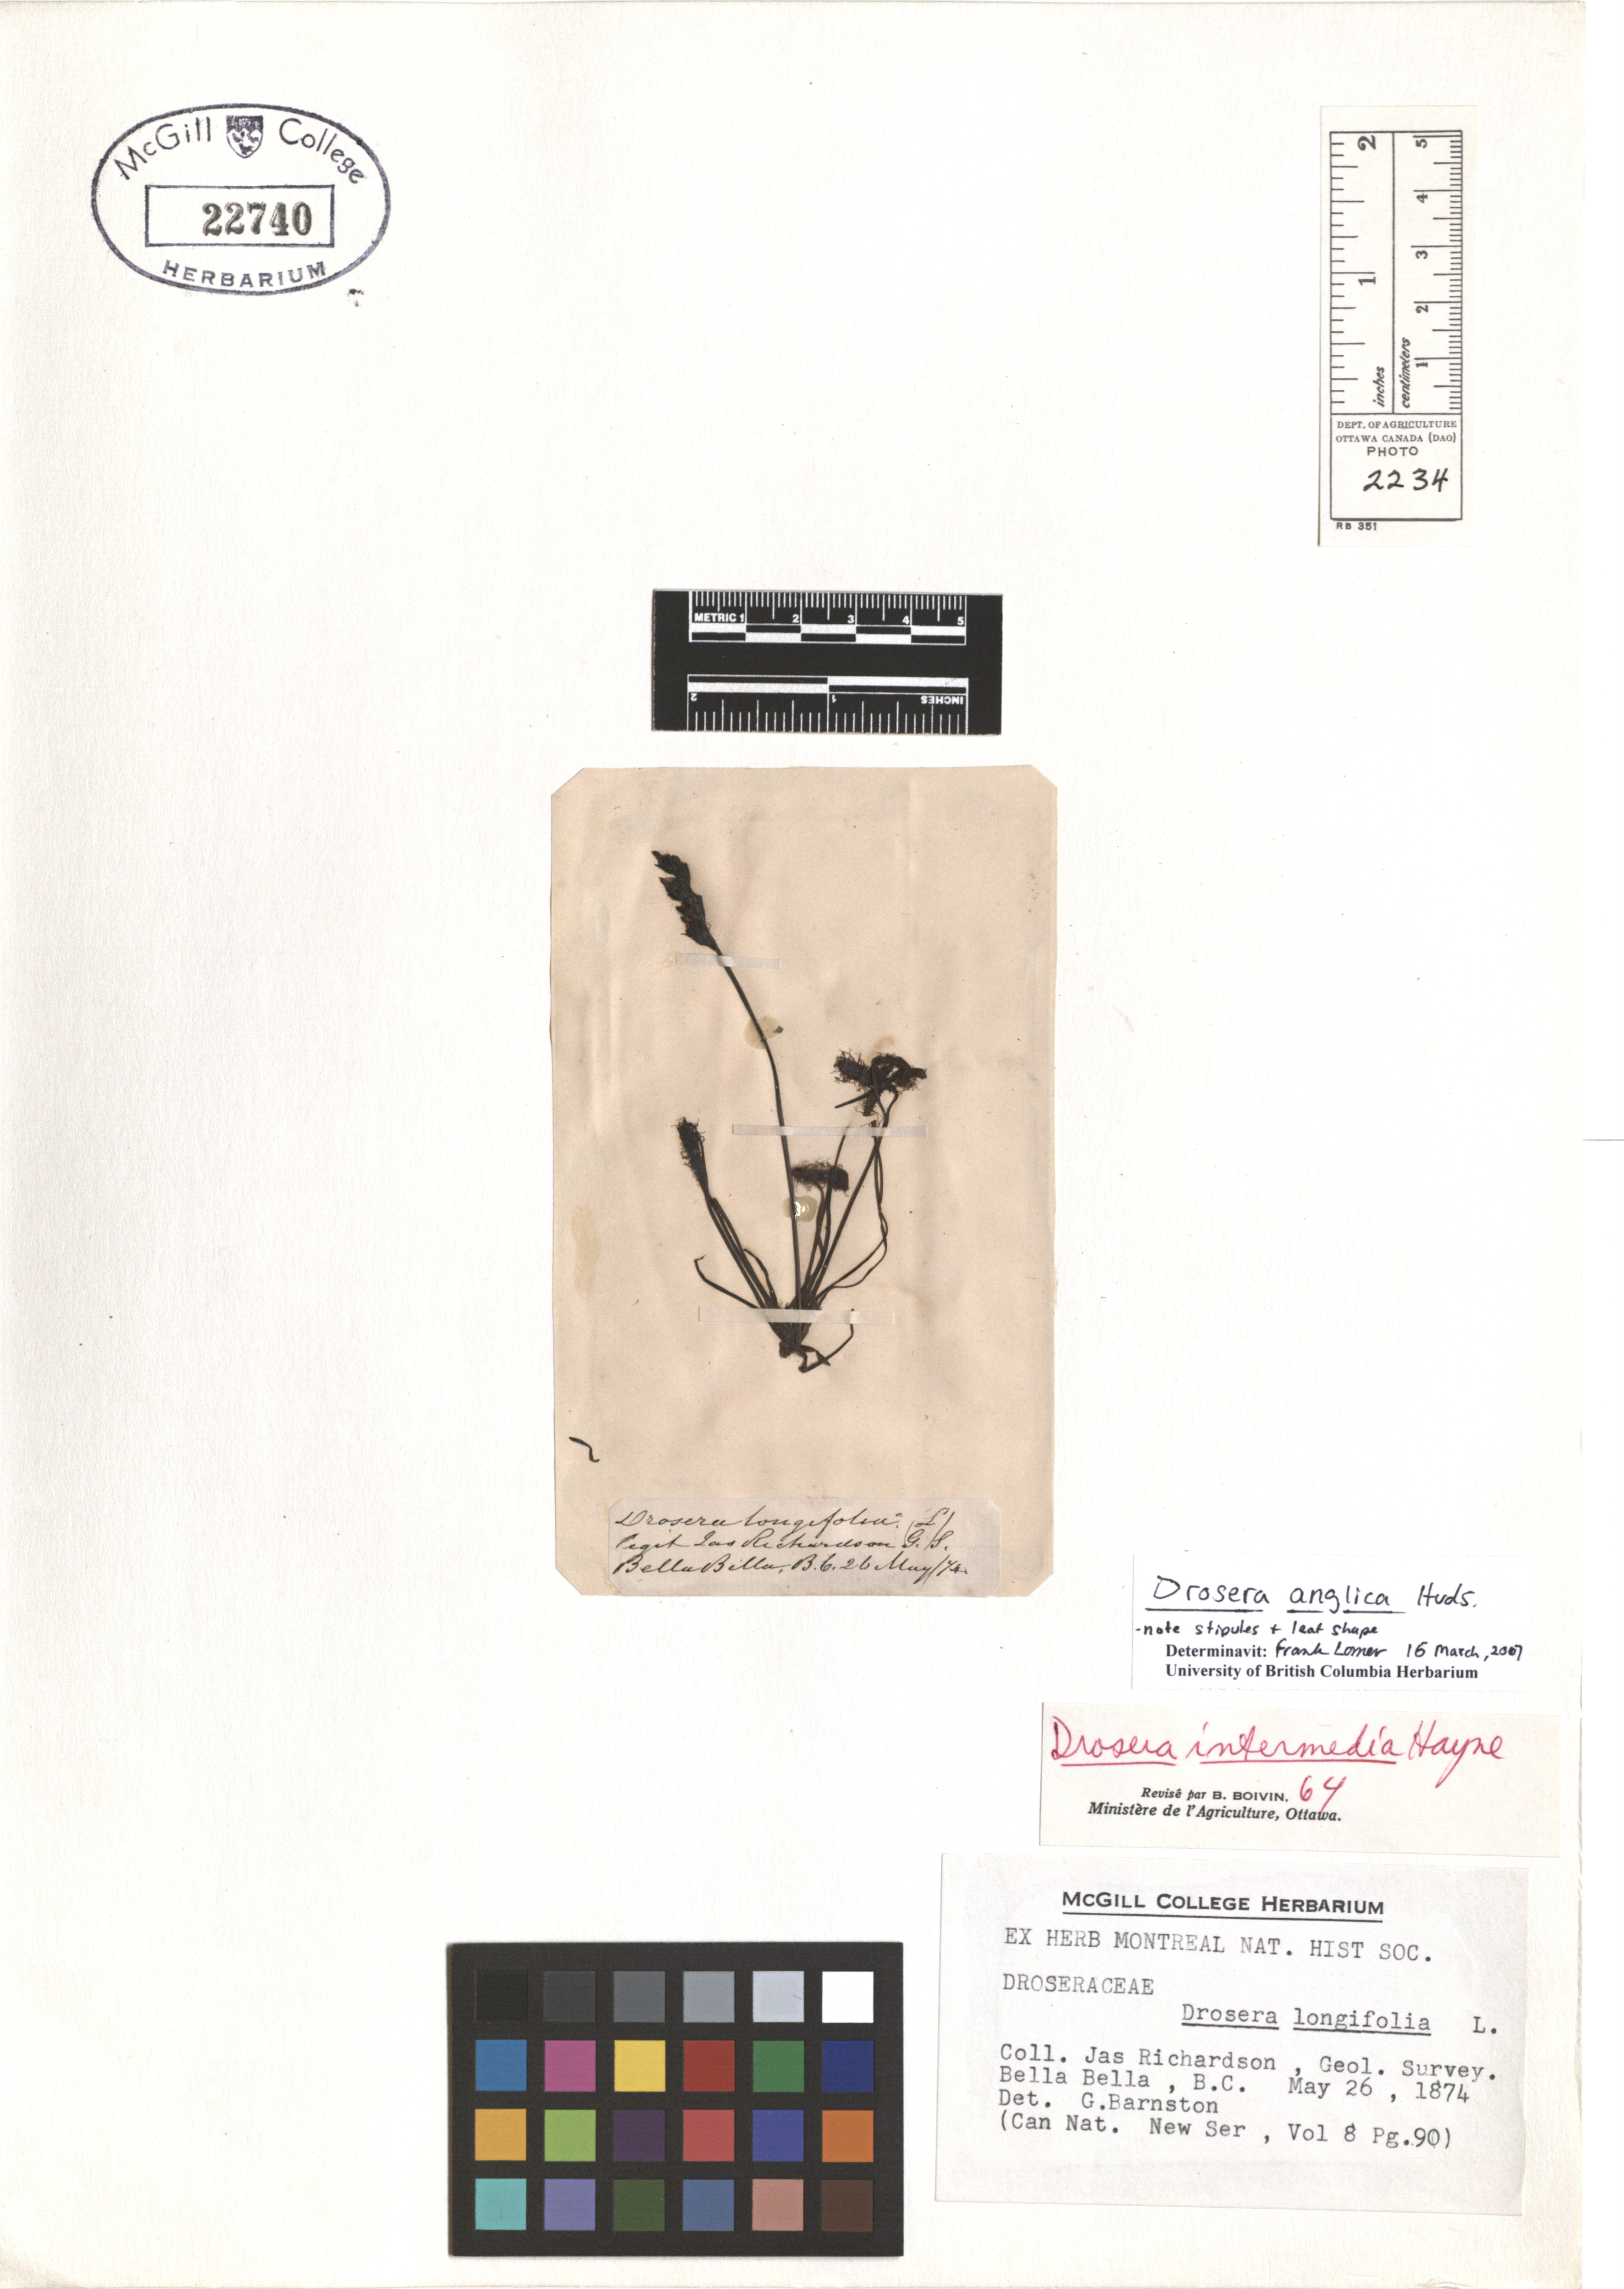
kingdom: Plantae
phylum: Tracheophyta
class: Magnoliopsida
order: Caryophyllales
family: Droseraceae
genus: Drosera
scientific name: Drosera anglica
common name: Great sundew
